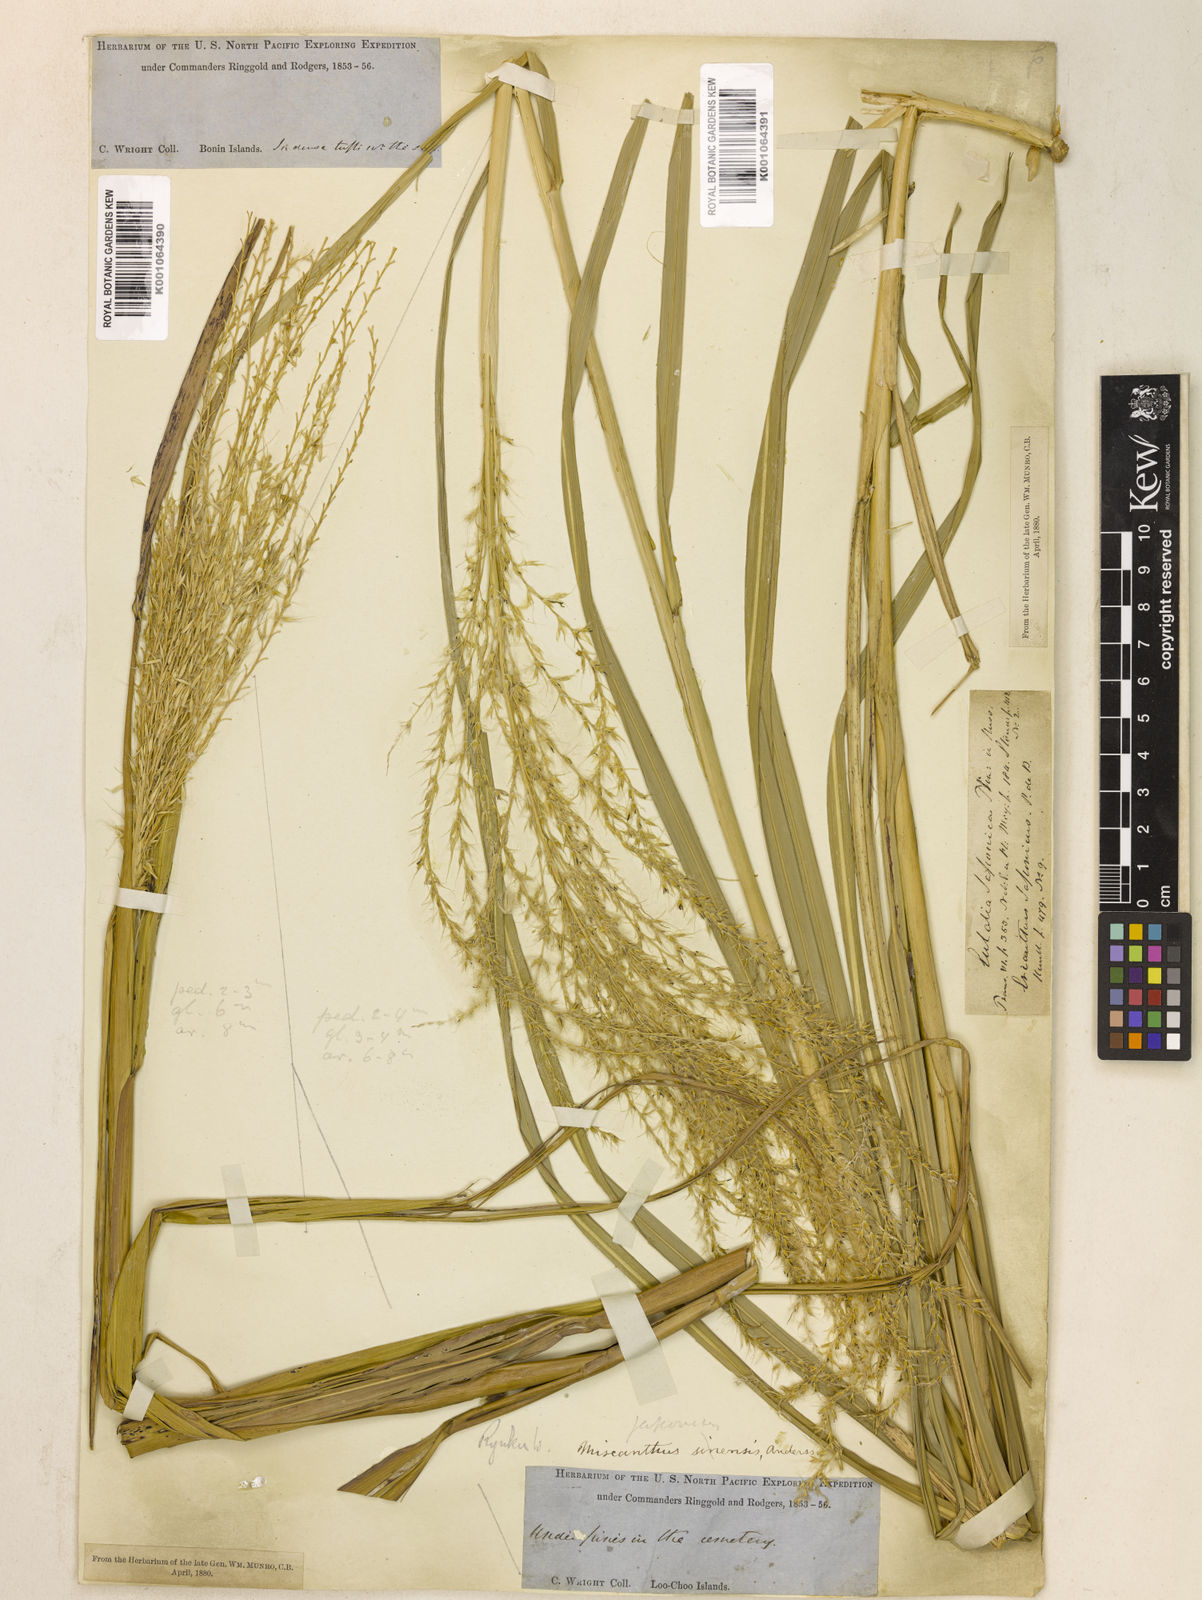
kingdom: Plantae
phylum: Tracheophyta
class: Liliopsida
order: Poales
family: Poaceae
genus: Miscanthus
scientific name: Miscanthus sinensis
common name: Chinese silvergrass
